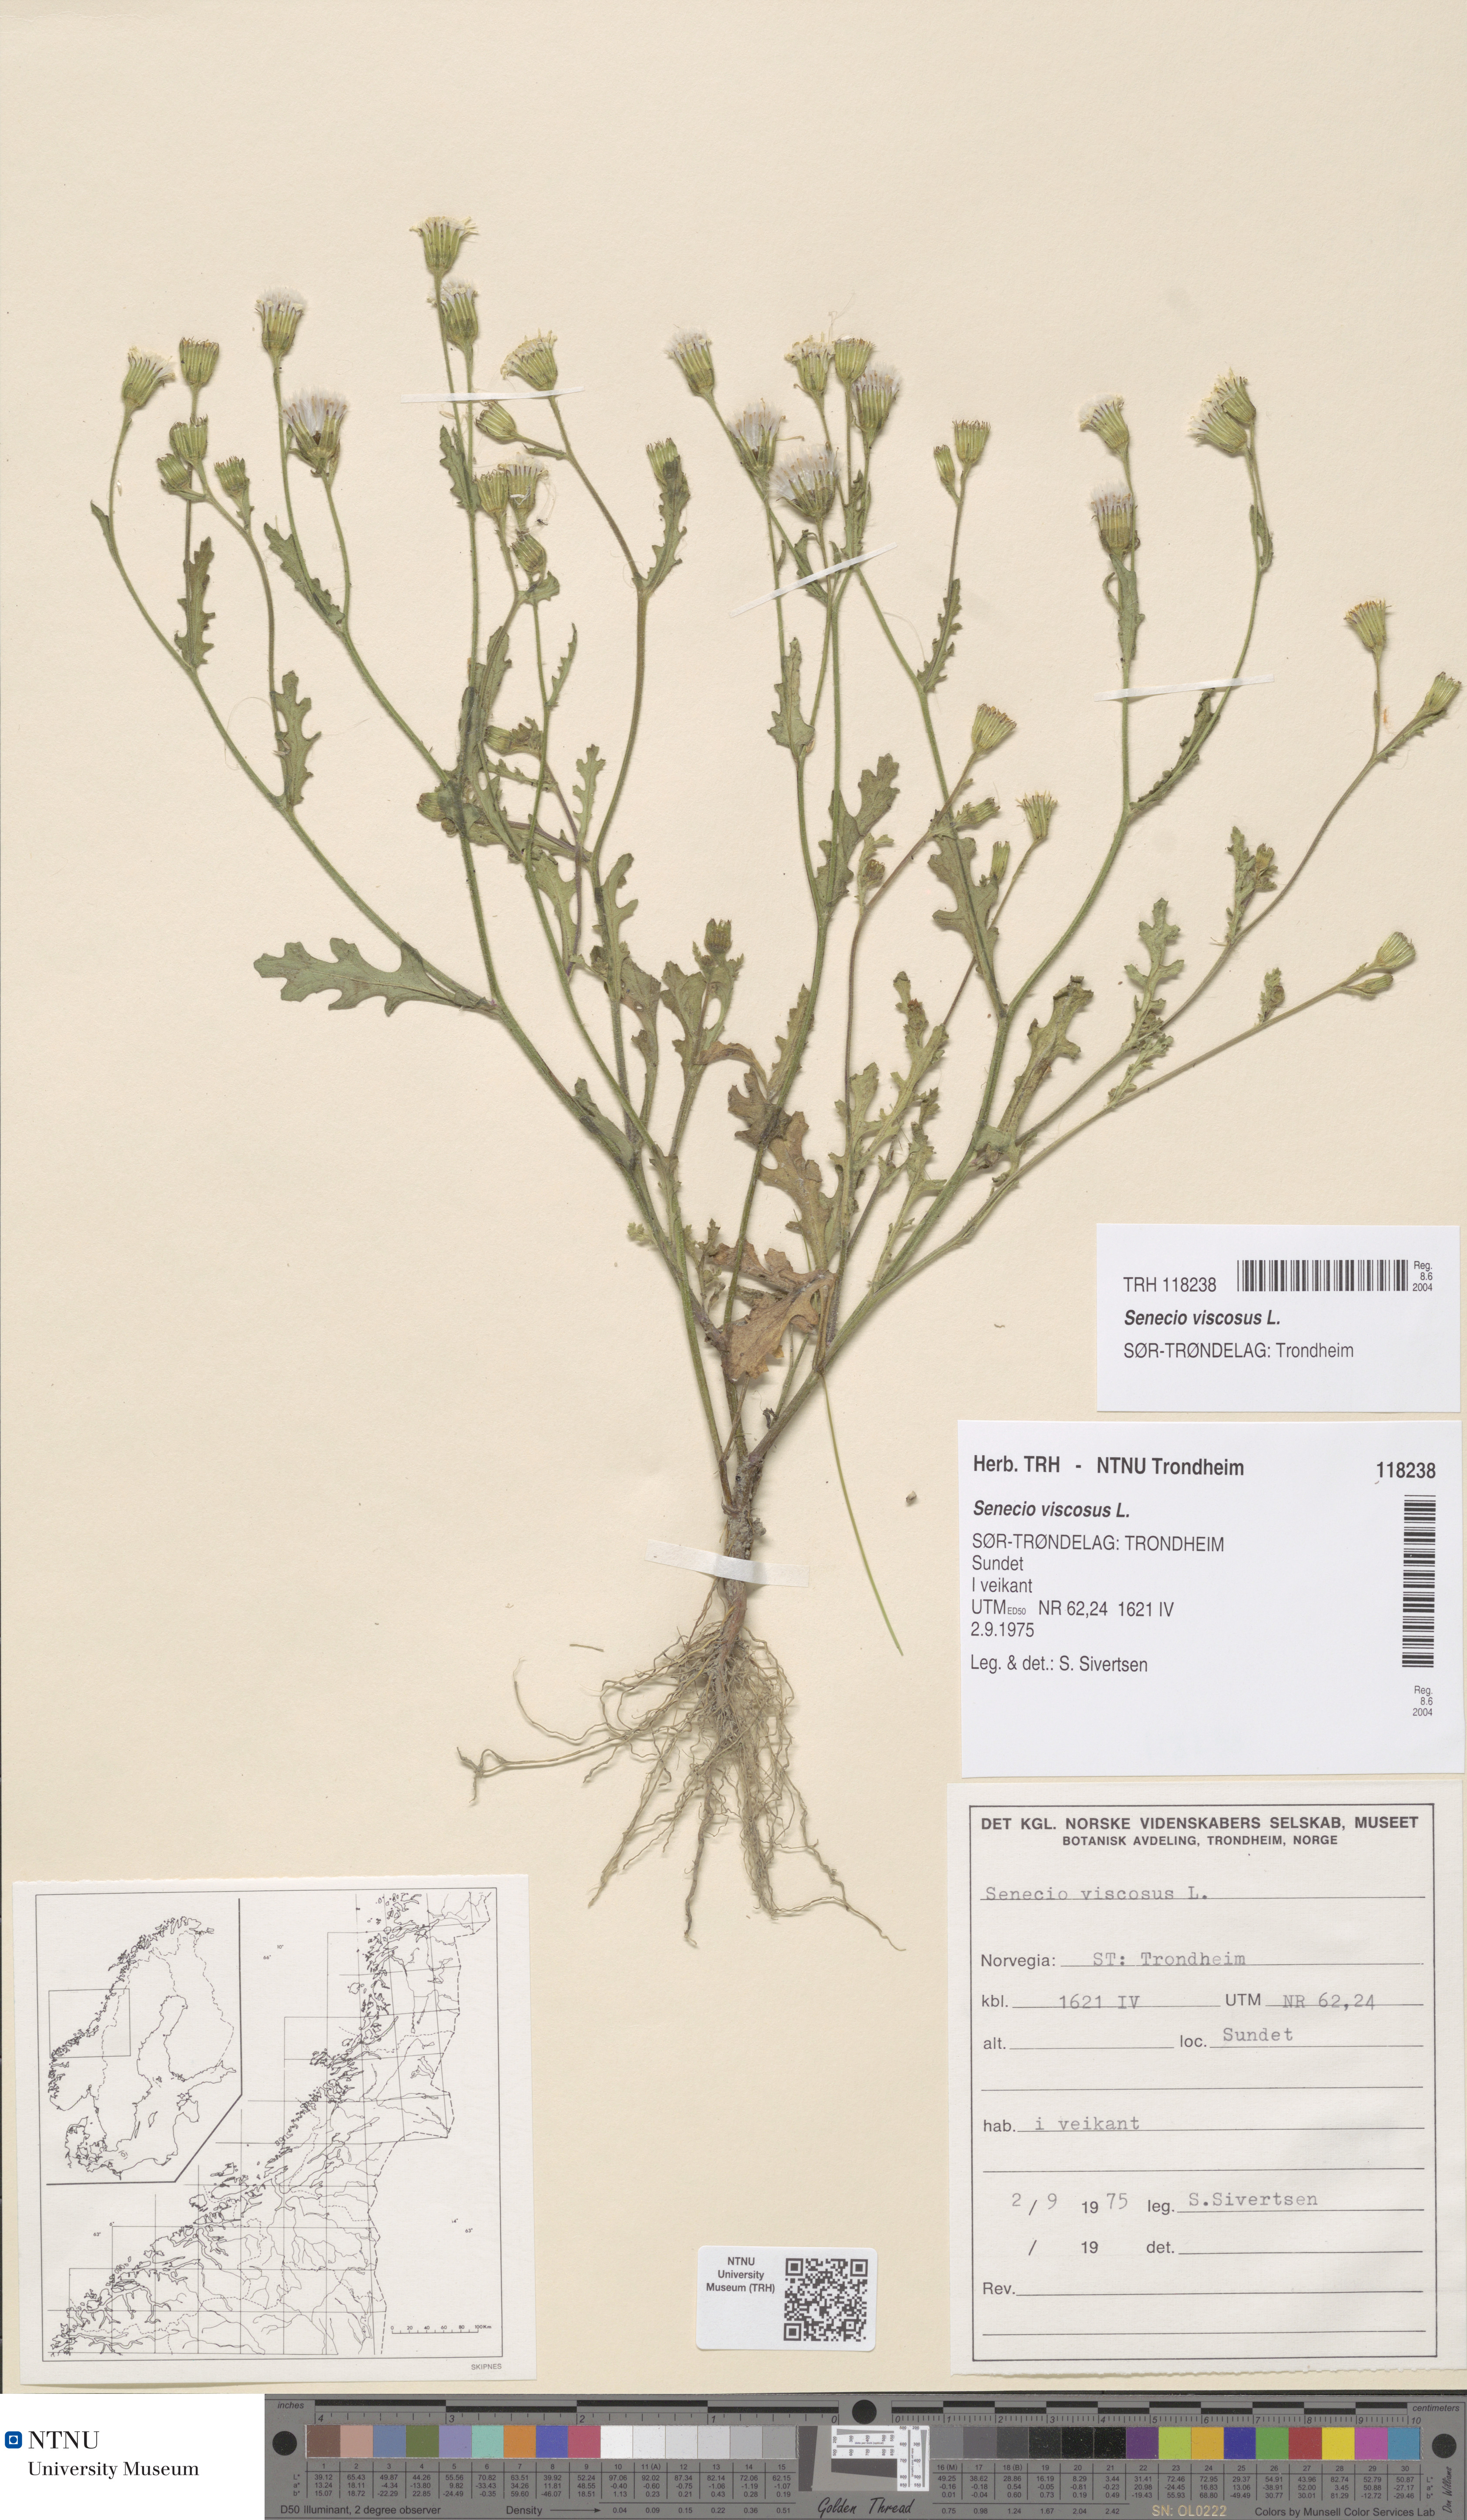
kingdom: Plantae
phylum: Tracheophyta
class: Magnoliopsida
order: Asterales
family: Asteraceae
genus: Senecio
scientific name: Senecio viscosus
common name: Sticky groundsel
